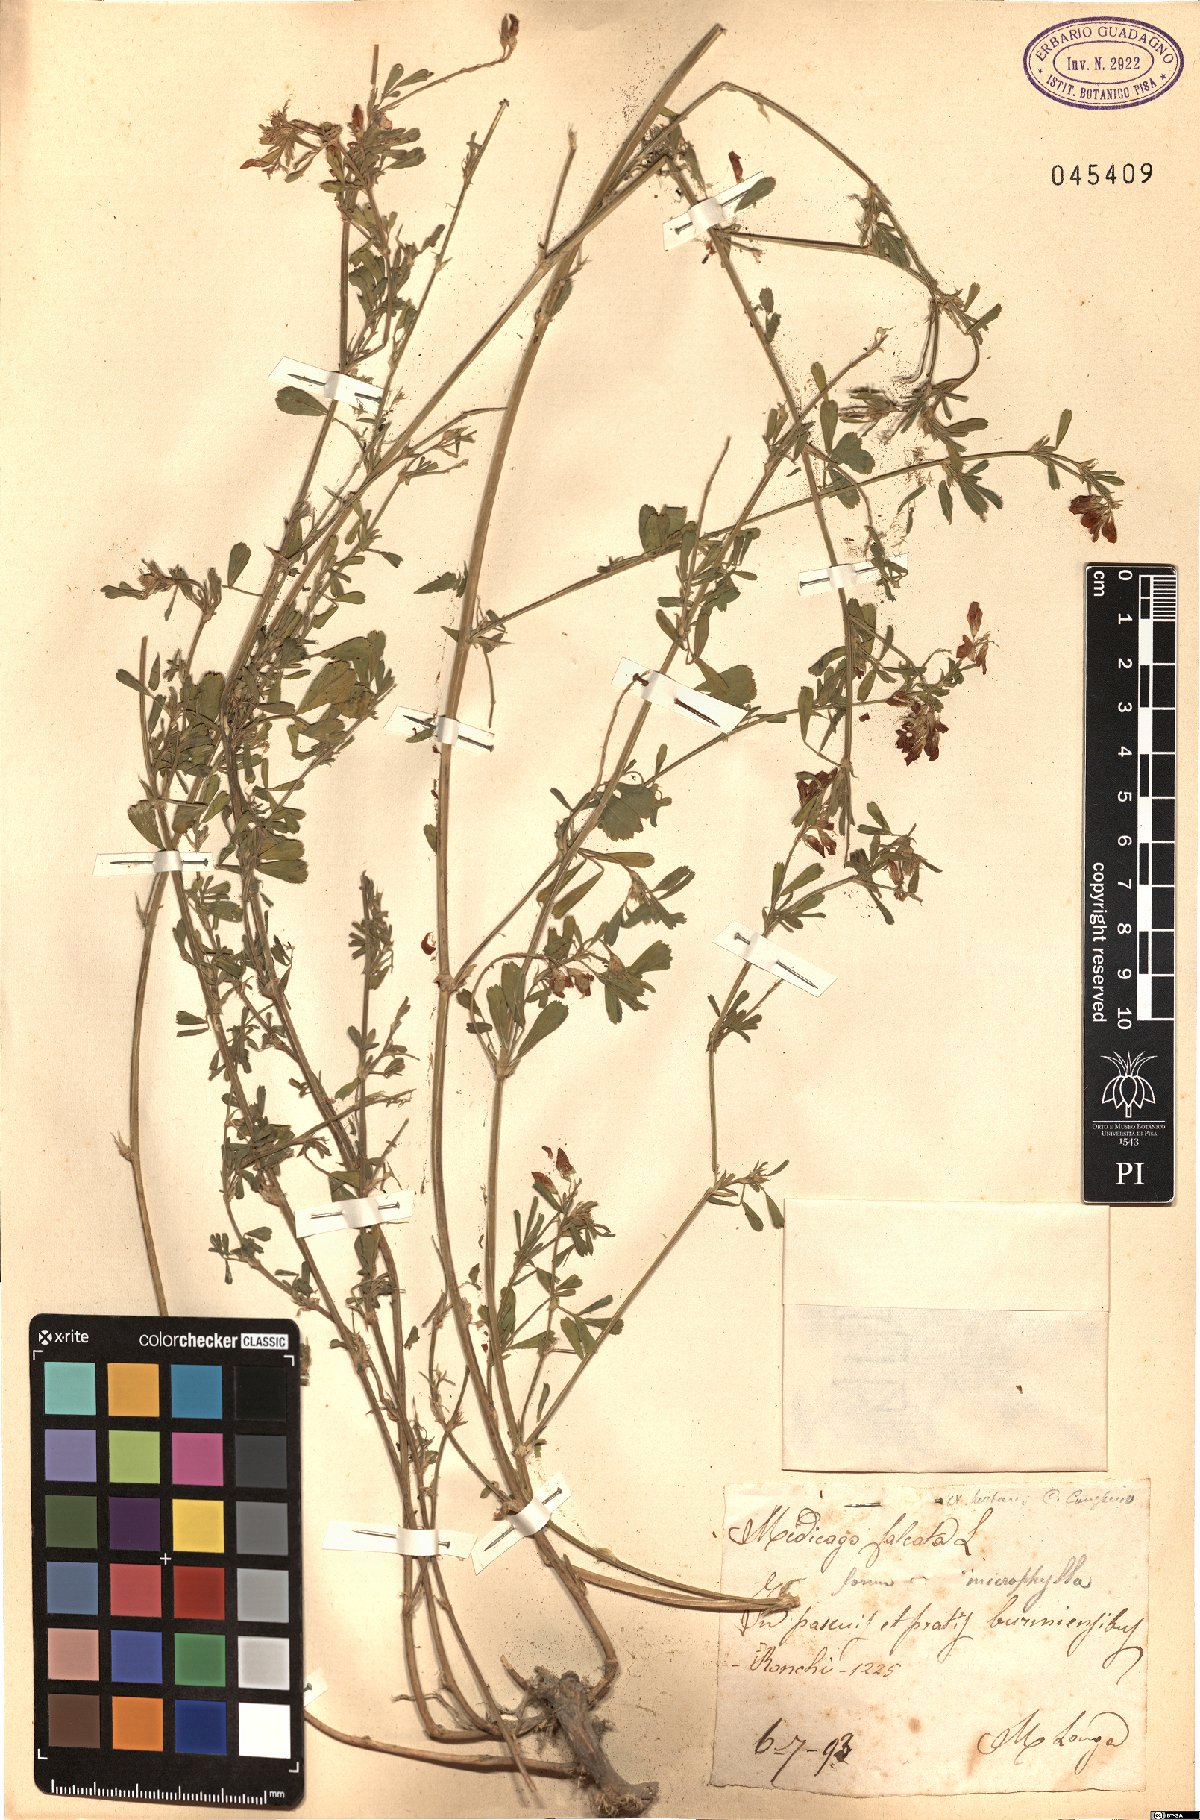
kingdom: Plantae
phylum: Tracheophyta
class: Magnoliopsida
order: Fabales
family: Fabaceae
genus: Medicago
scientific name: Medicago falcata
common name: Sickle medick
